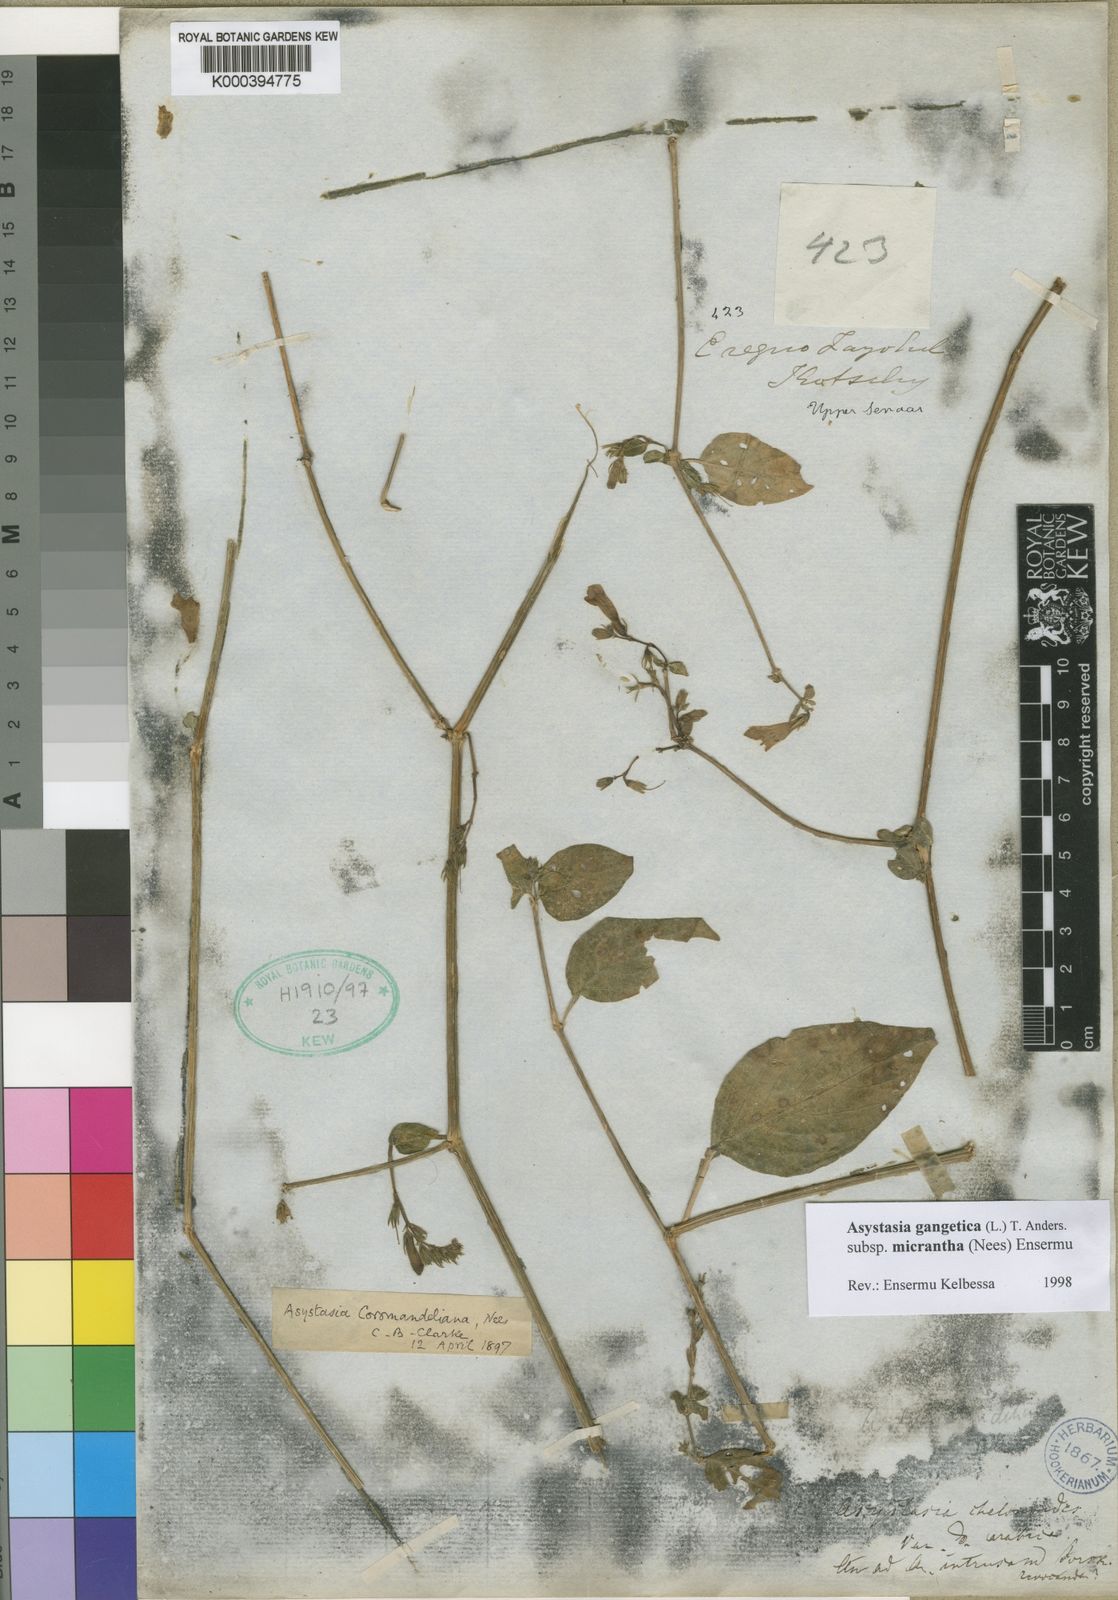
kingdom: Plantae
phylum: Tracheophyta
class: Magnoliopsida
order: Lamiales
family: Acanthaceae
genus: Asystasia
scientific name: Asystasia gangetica
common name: Chinese violet
